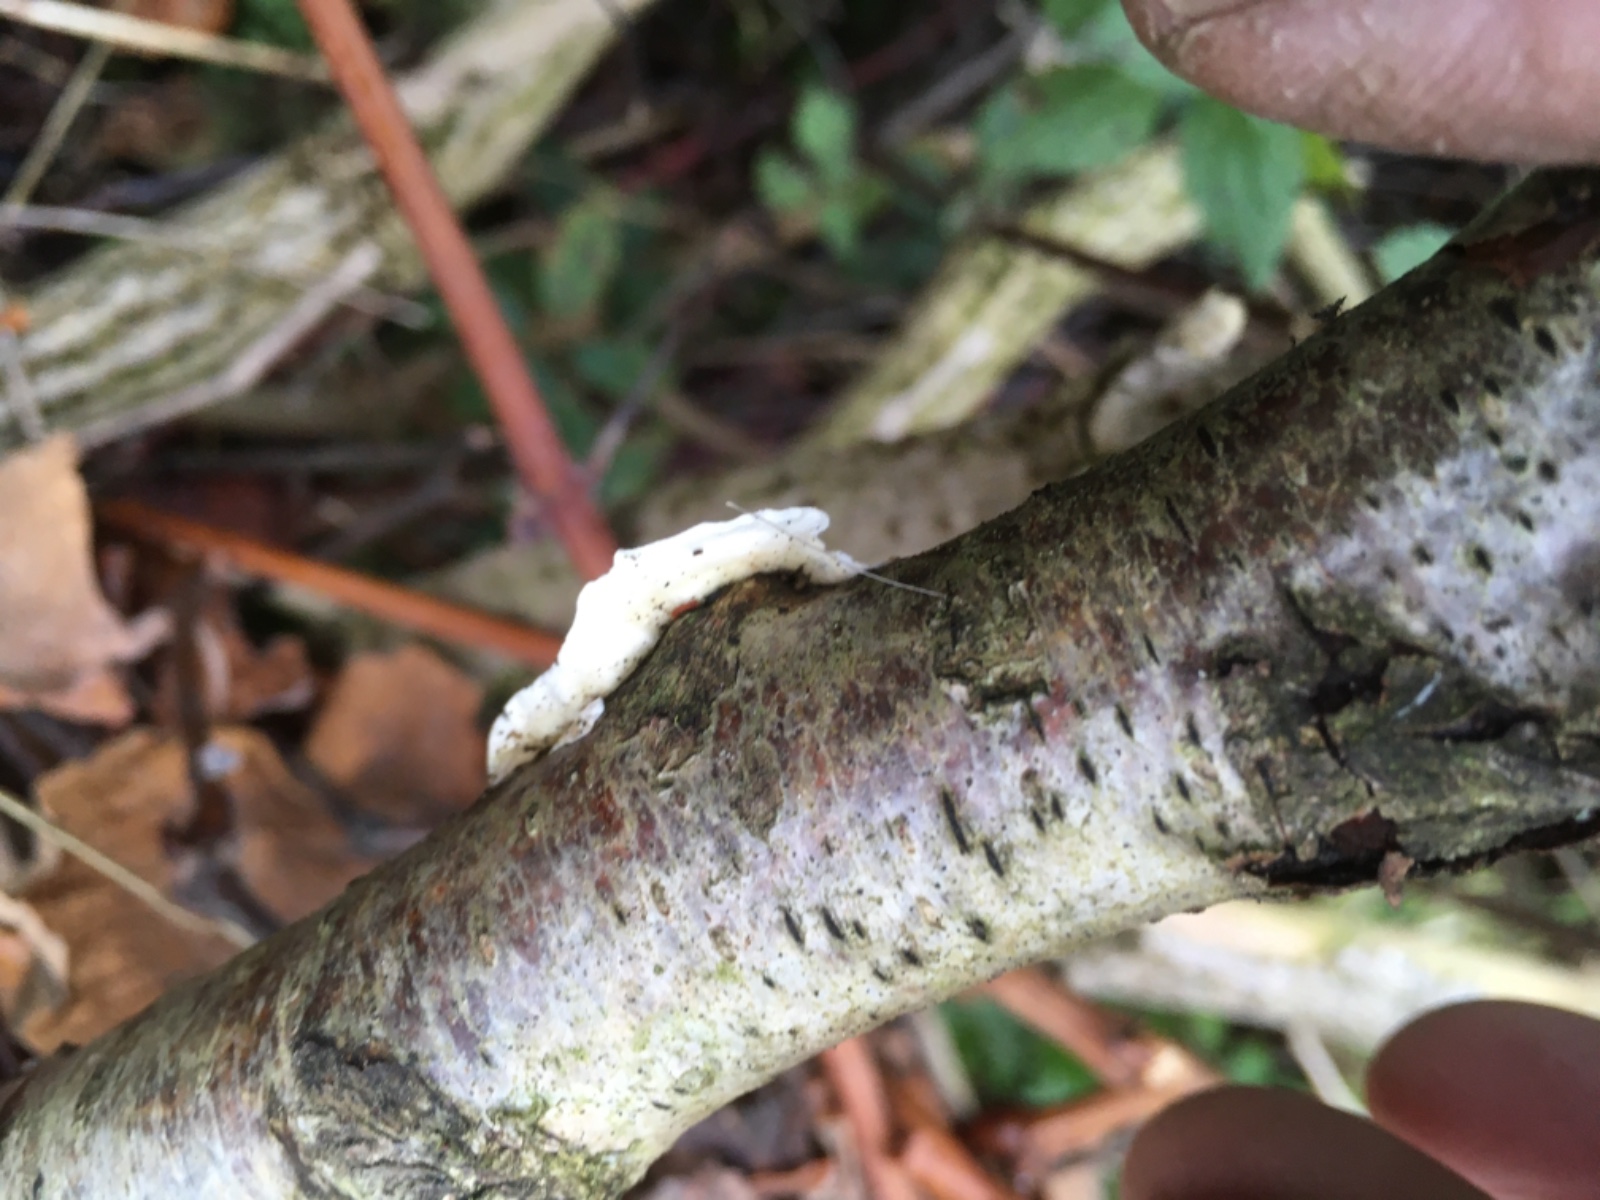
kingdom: Fungi
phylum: Basidiomycota
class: Agaricomycetes
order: Polyporales
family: Irpicaceae
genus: Byssomerulius
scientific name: Byssomerulius corium
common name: læder-åresvamp
